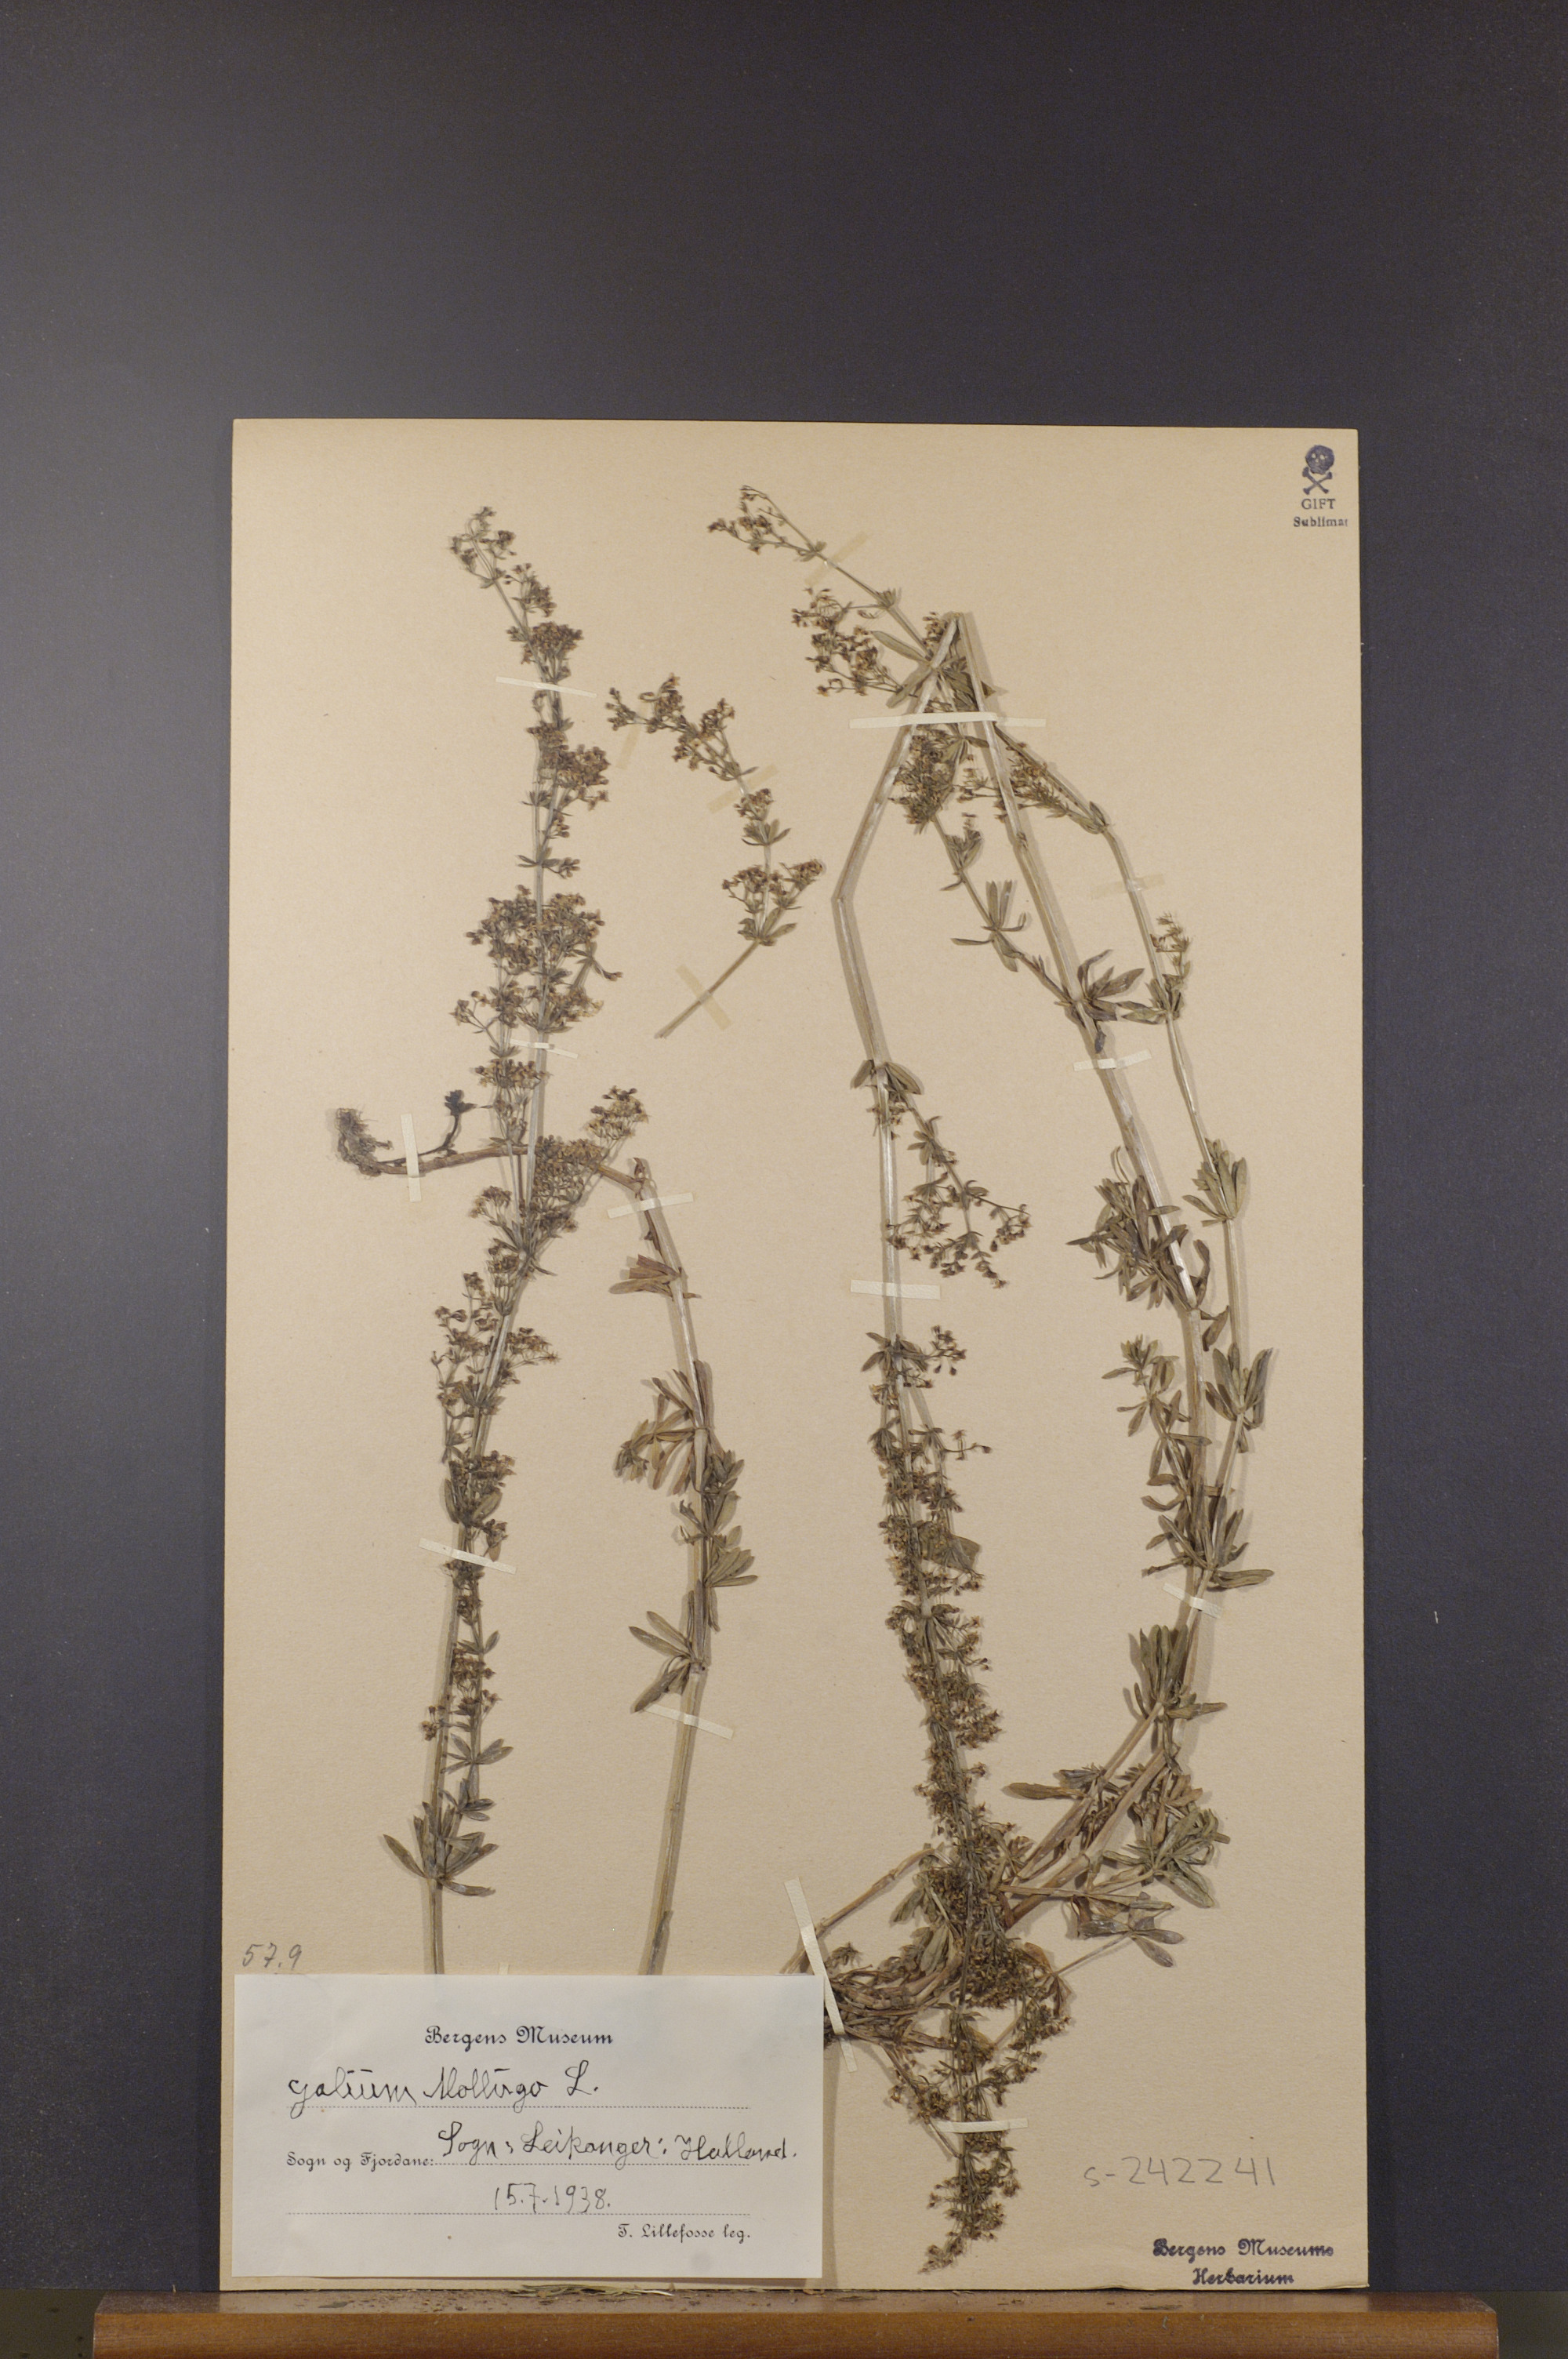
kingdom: Plantae
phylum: Tracheophyta
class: Magnoliopsida
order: Gentianales
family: Rubiaceae
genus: Galium
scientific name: Galium mollugo
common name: Hedge bedstraw
